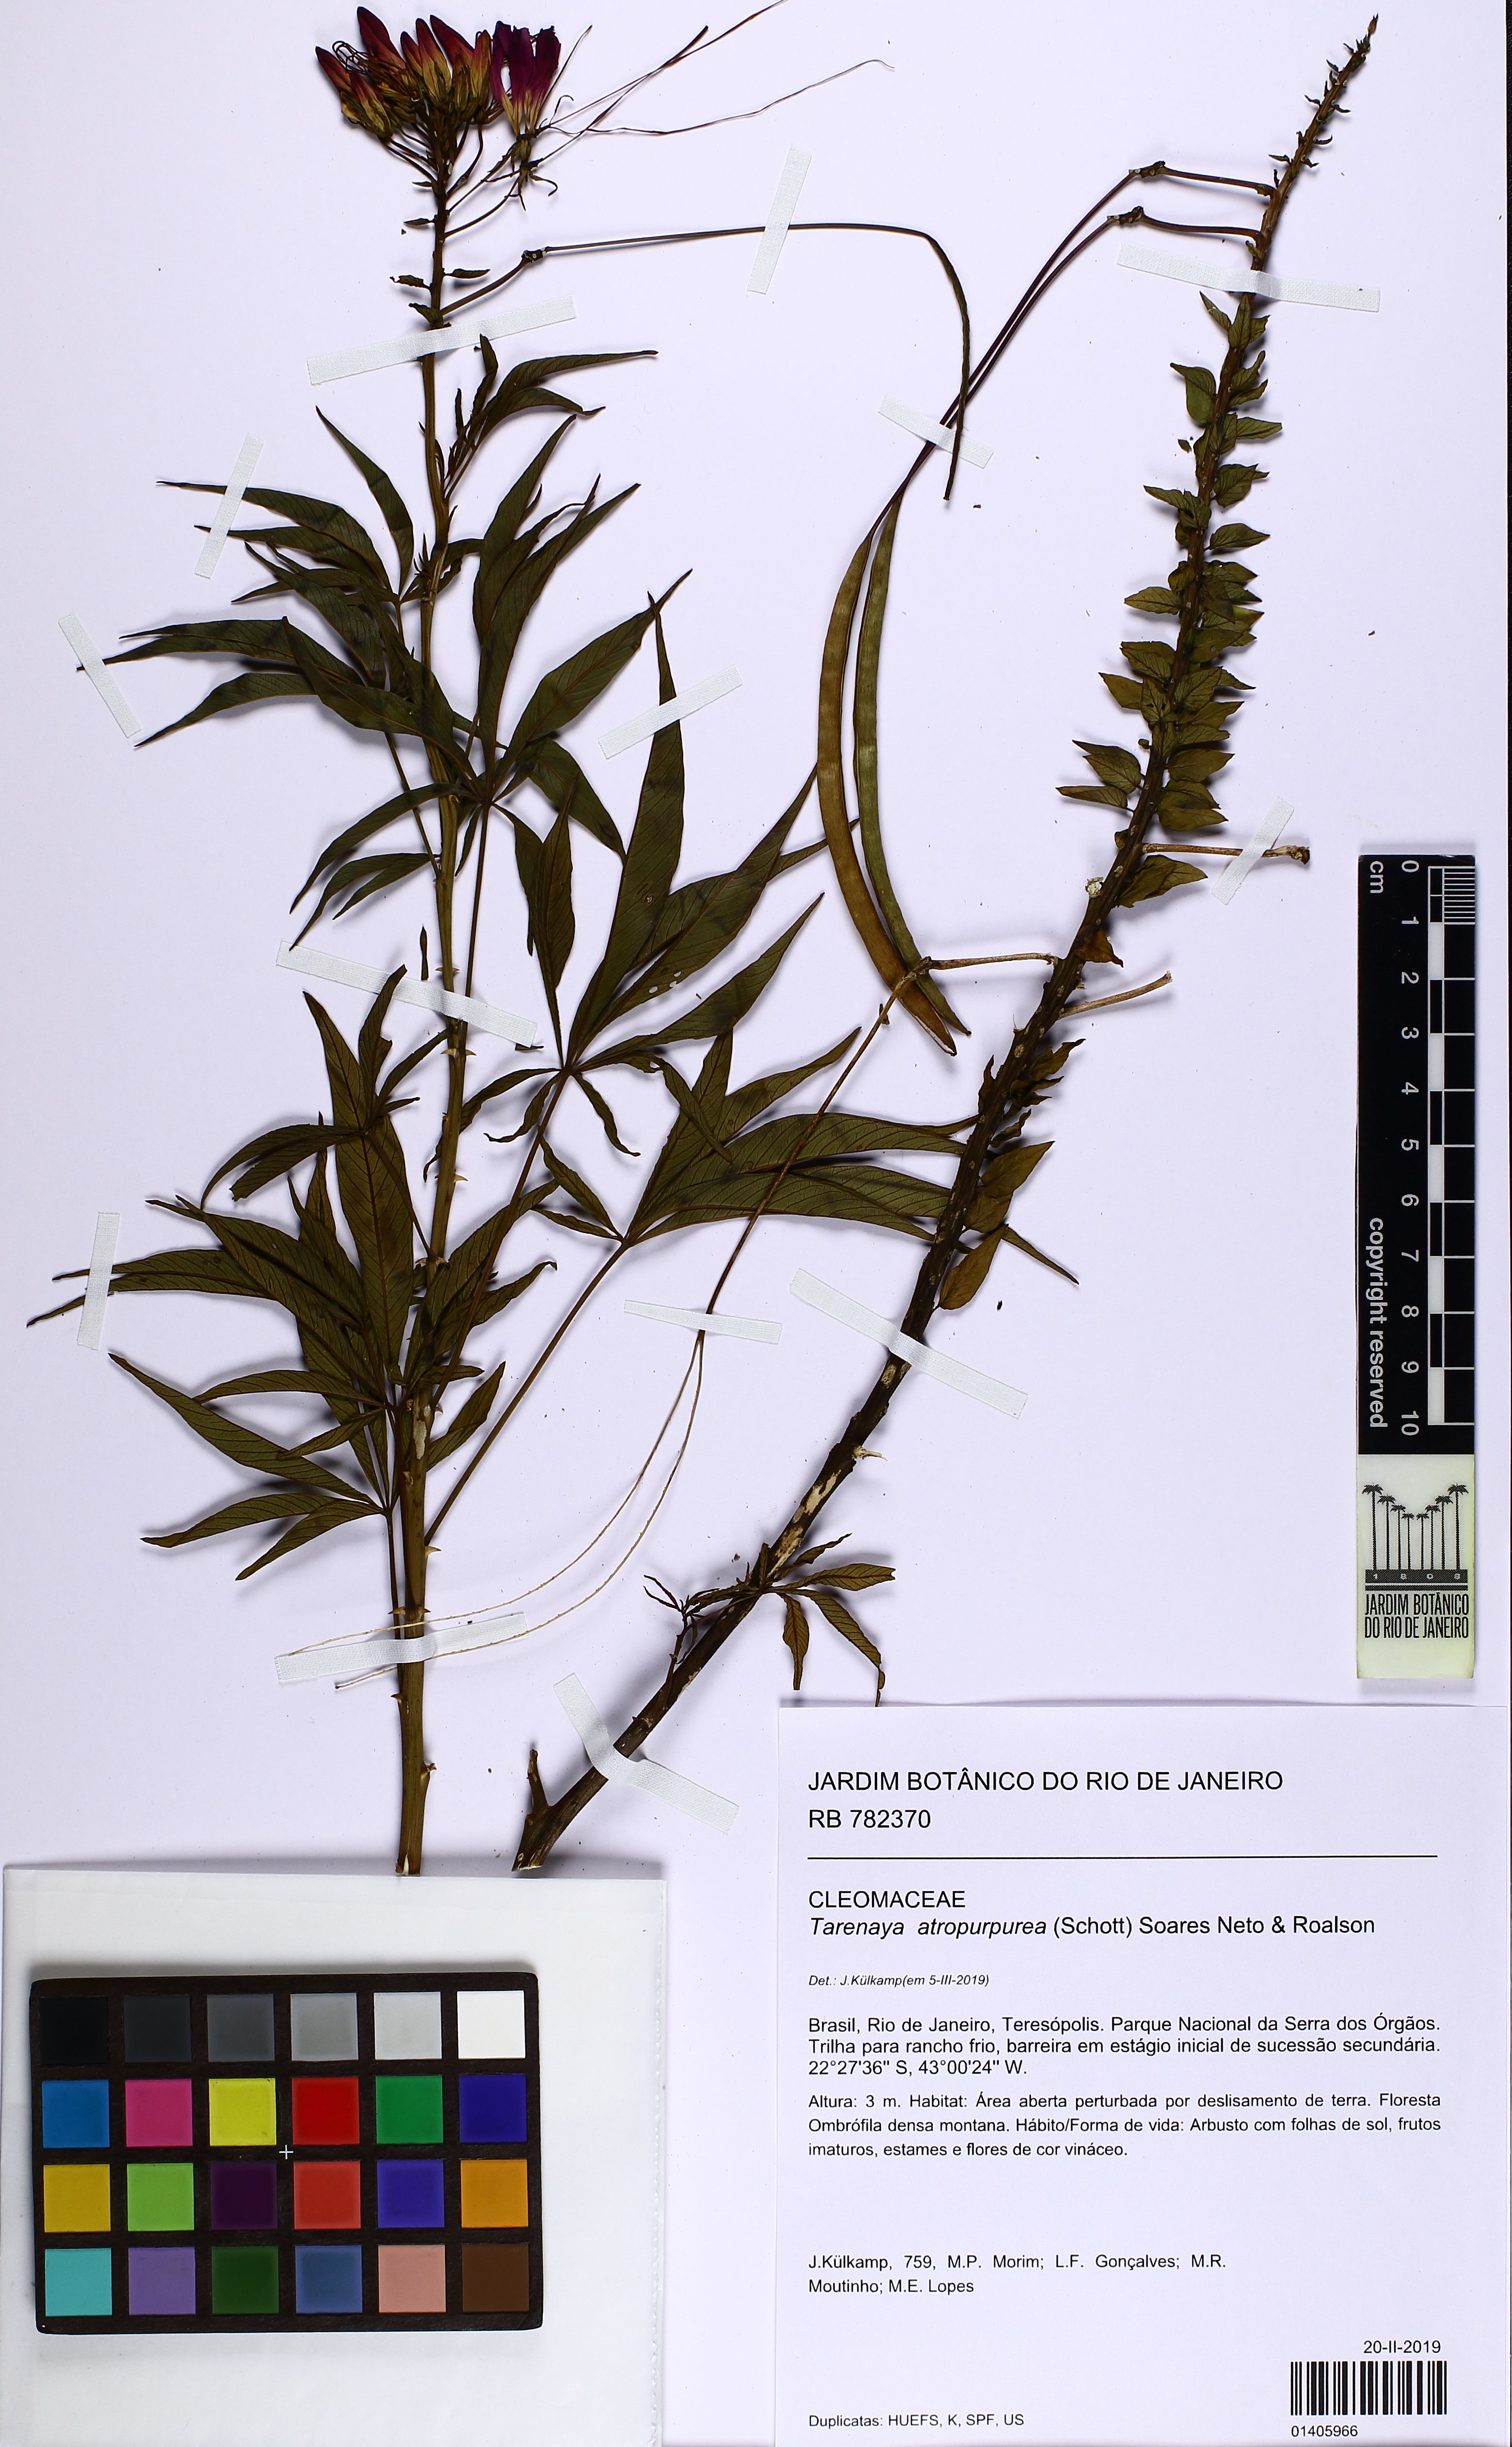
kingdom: Plantae
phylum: Tracheophyta
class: Magnoliopsida
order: Brassicales
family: Cleomaceae
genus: Tarenaya
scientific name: Tarenaya atropurpurea
